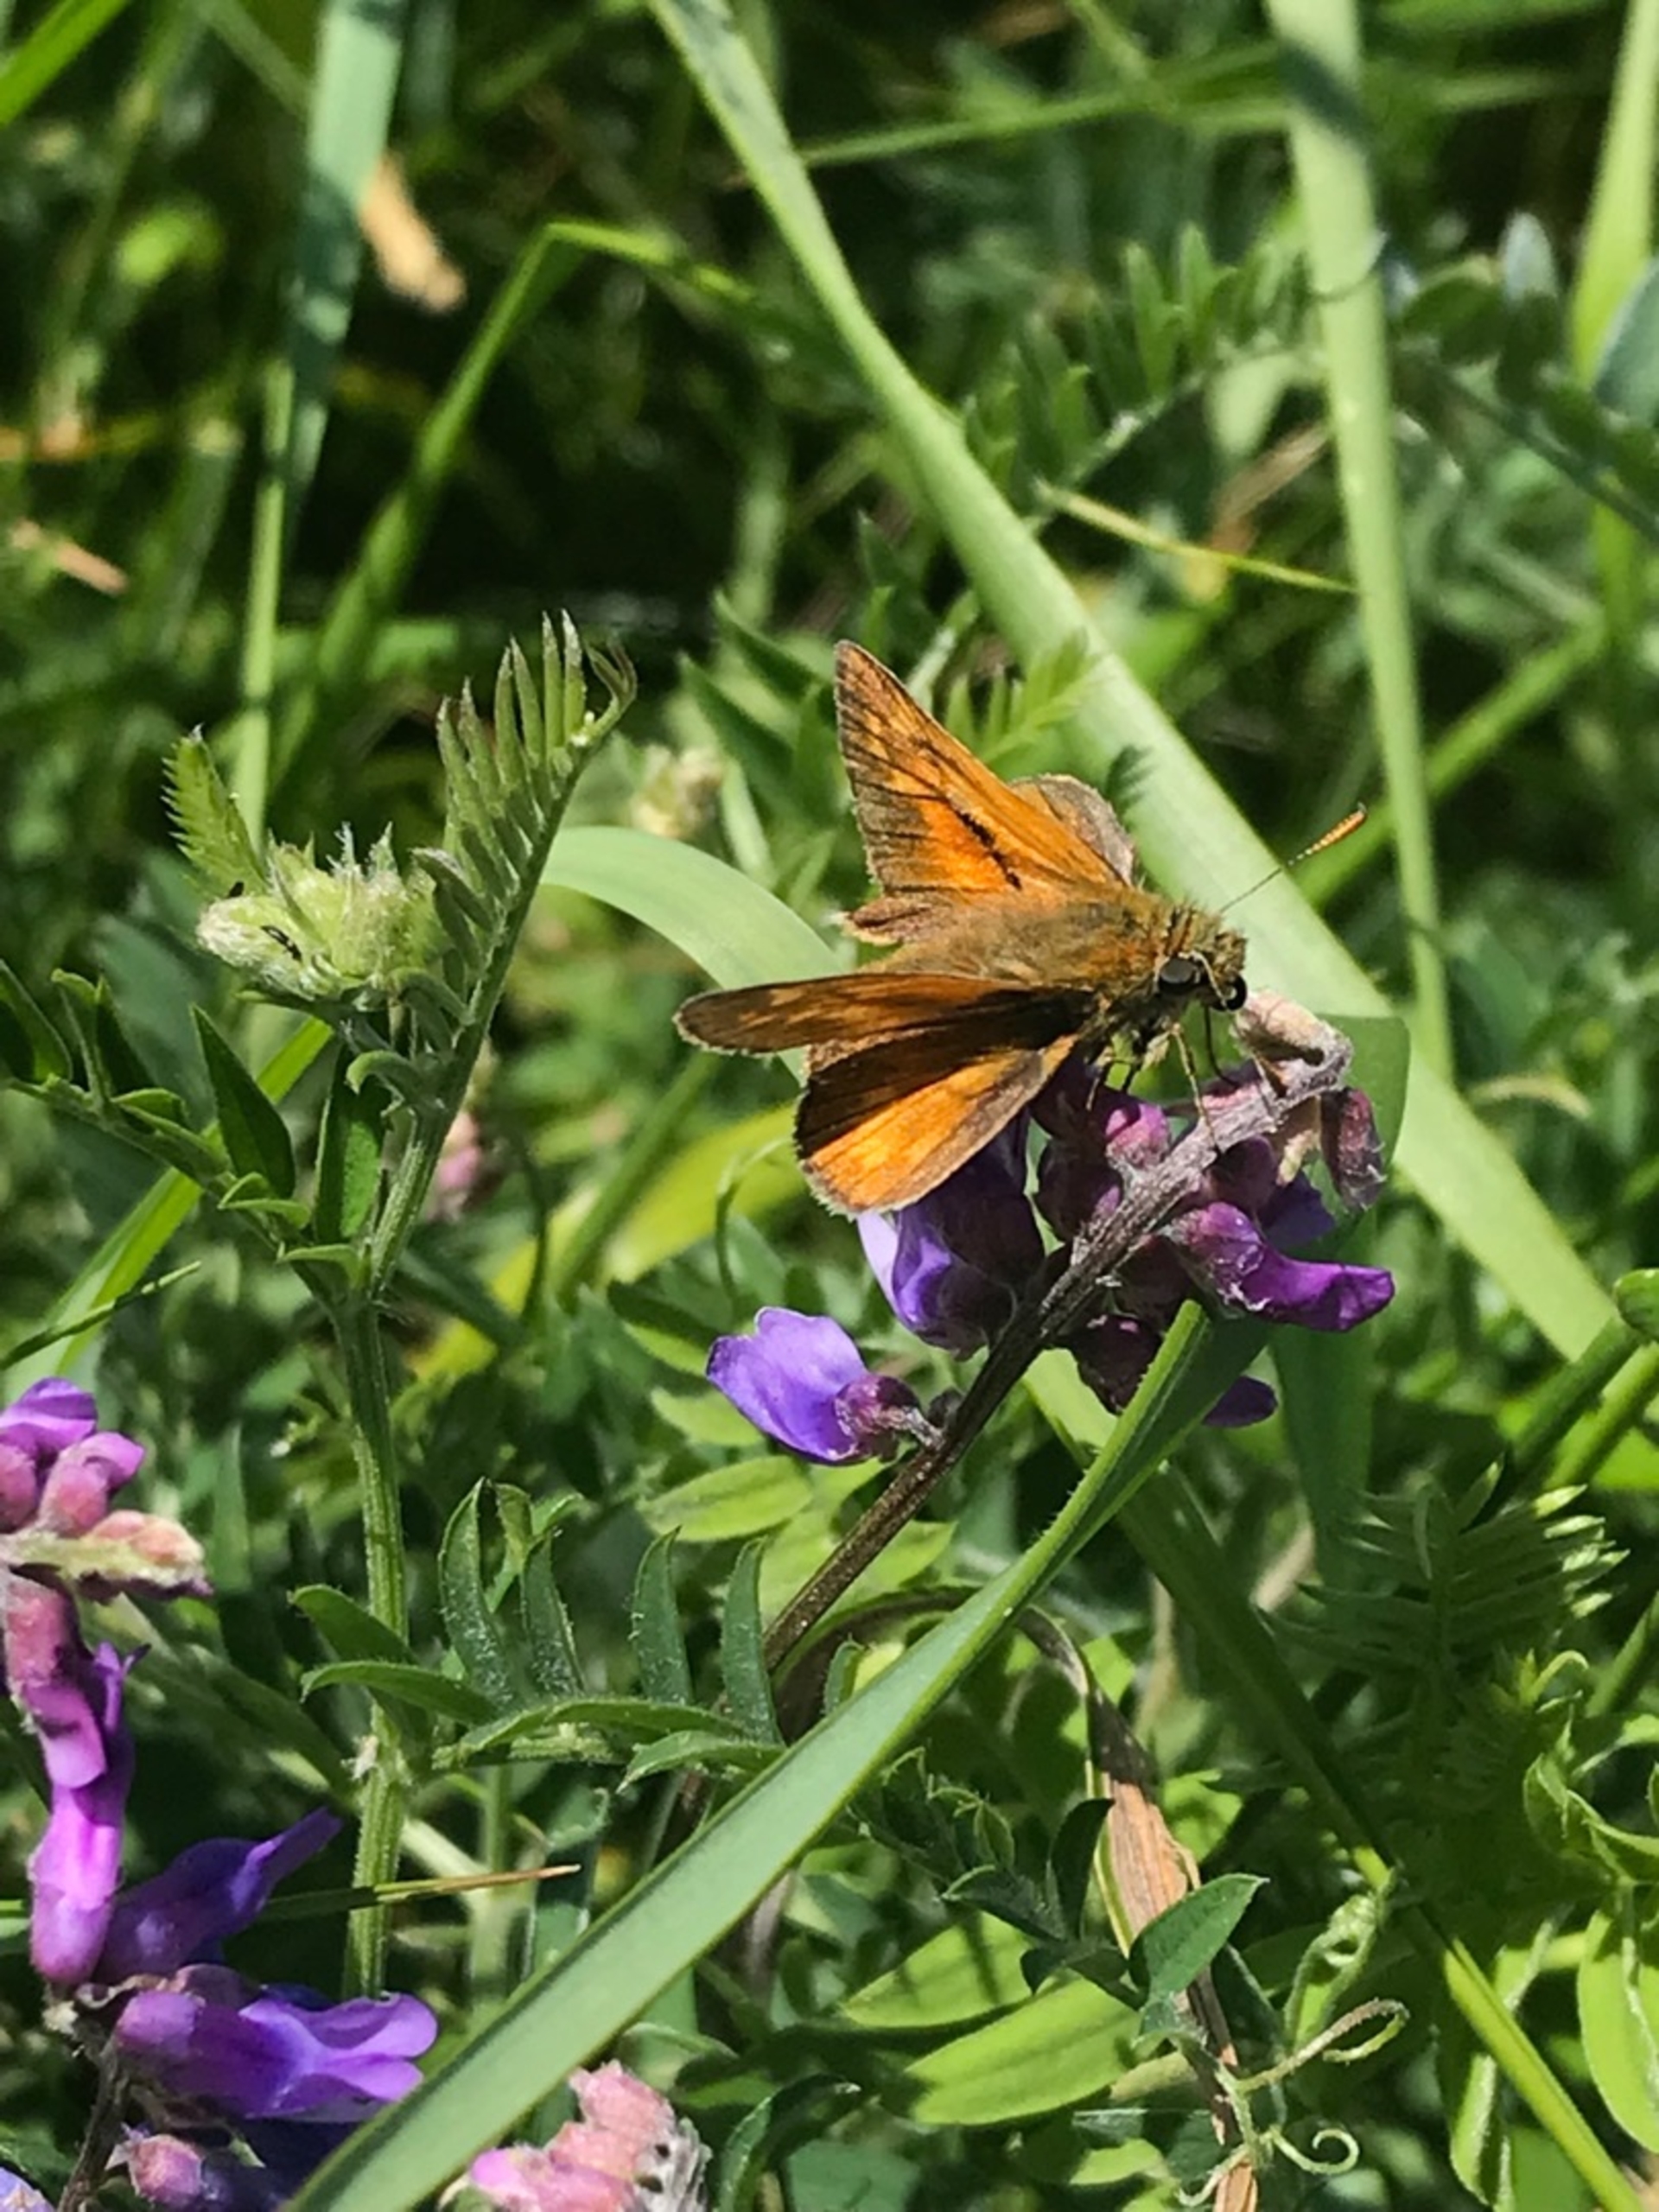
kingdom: Animalia
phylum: Arthropoda
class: Insecta
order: Lepidoptera
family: Hesperiidae
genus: Ochlodes
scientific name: Ochlodes venata
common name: Stor bredpande
